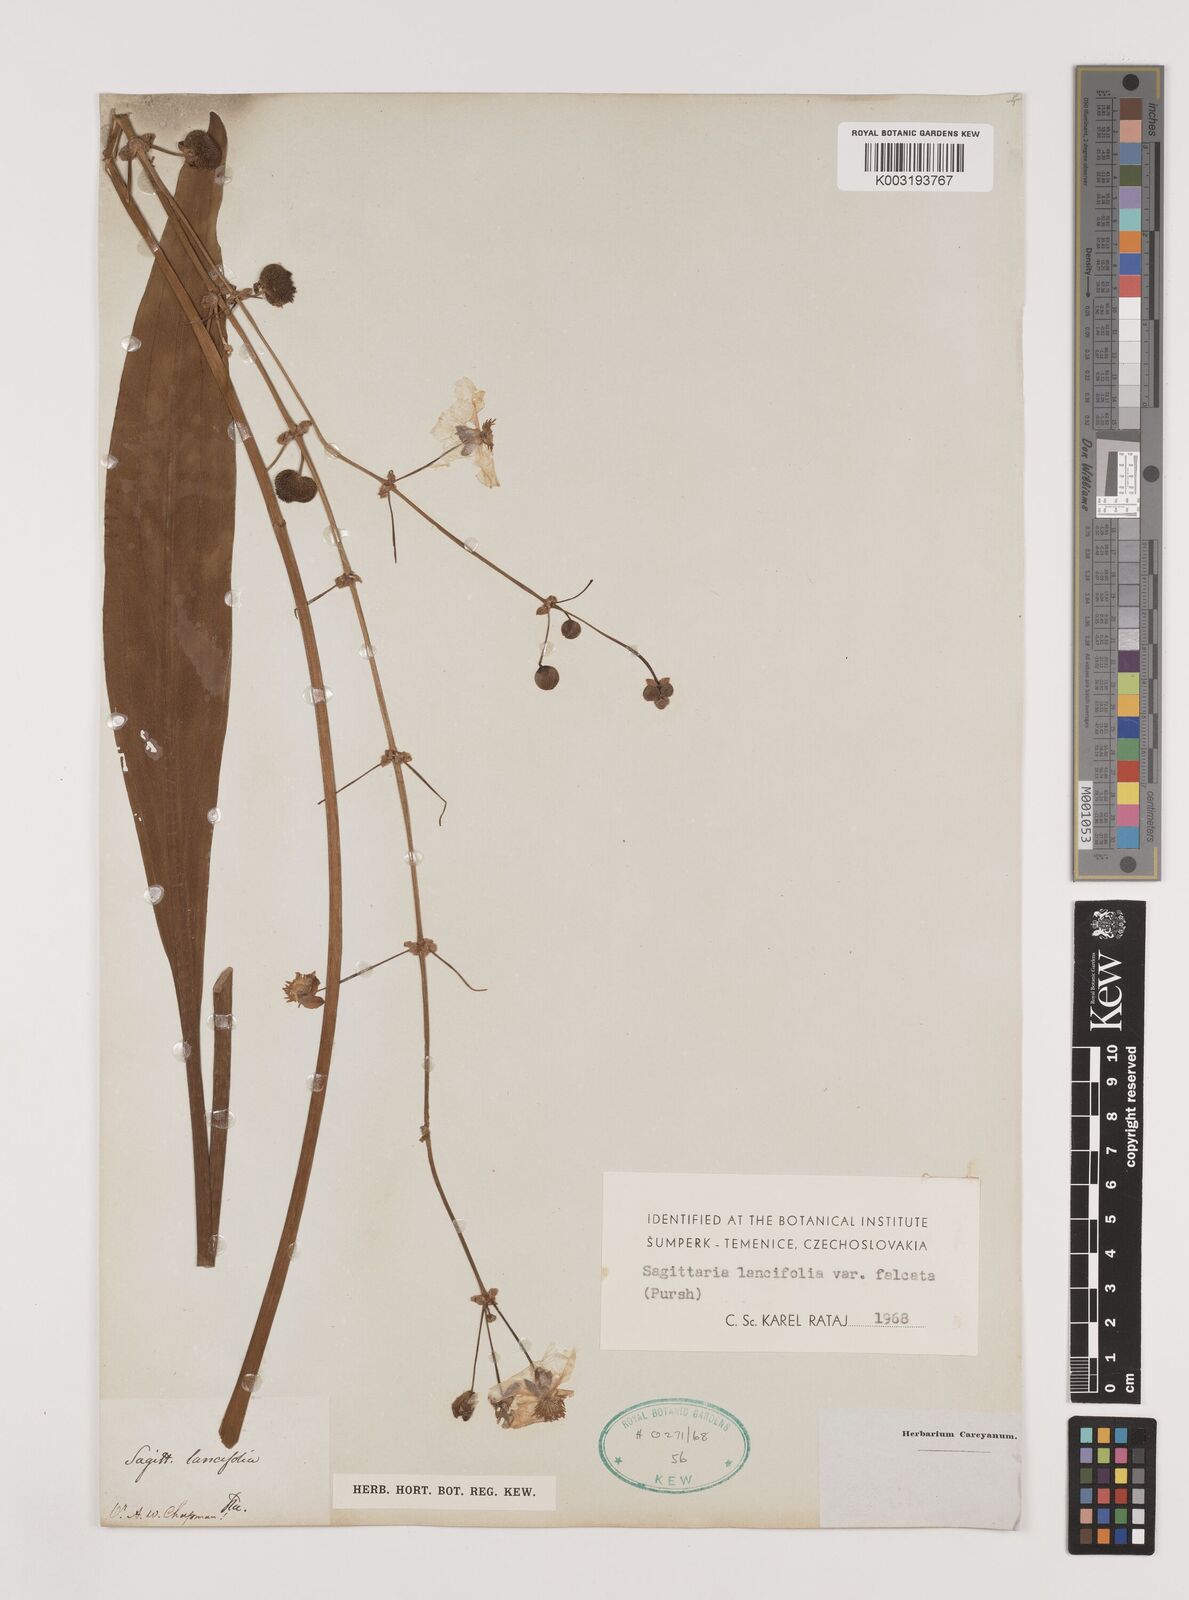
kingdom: Plantae
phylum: Tracheophyta
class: Liliopsida
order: Alismatales
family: Alismataceae
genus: Sagittaria
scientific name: Sagittaria lancifolia
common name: Lance-leaf arrowhead
